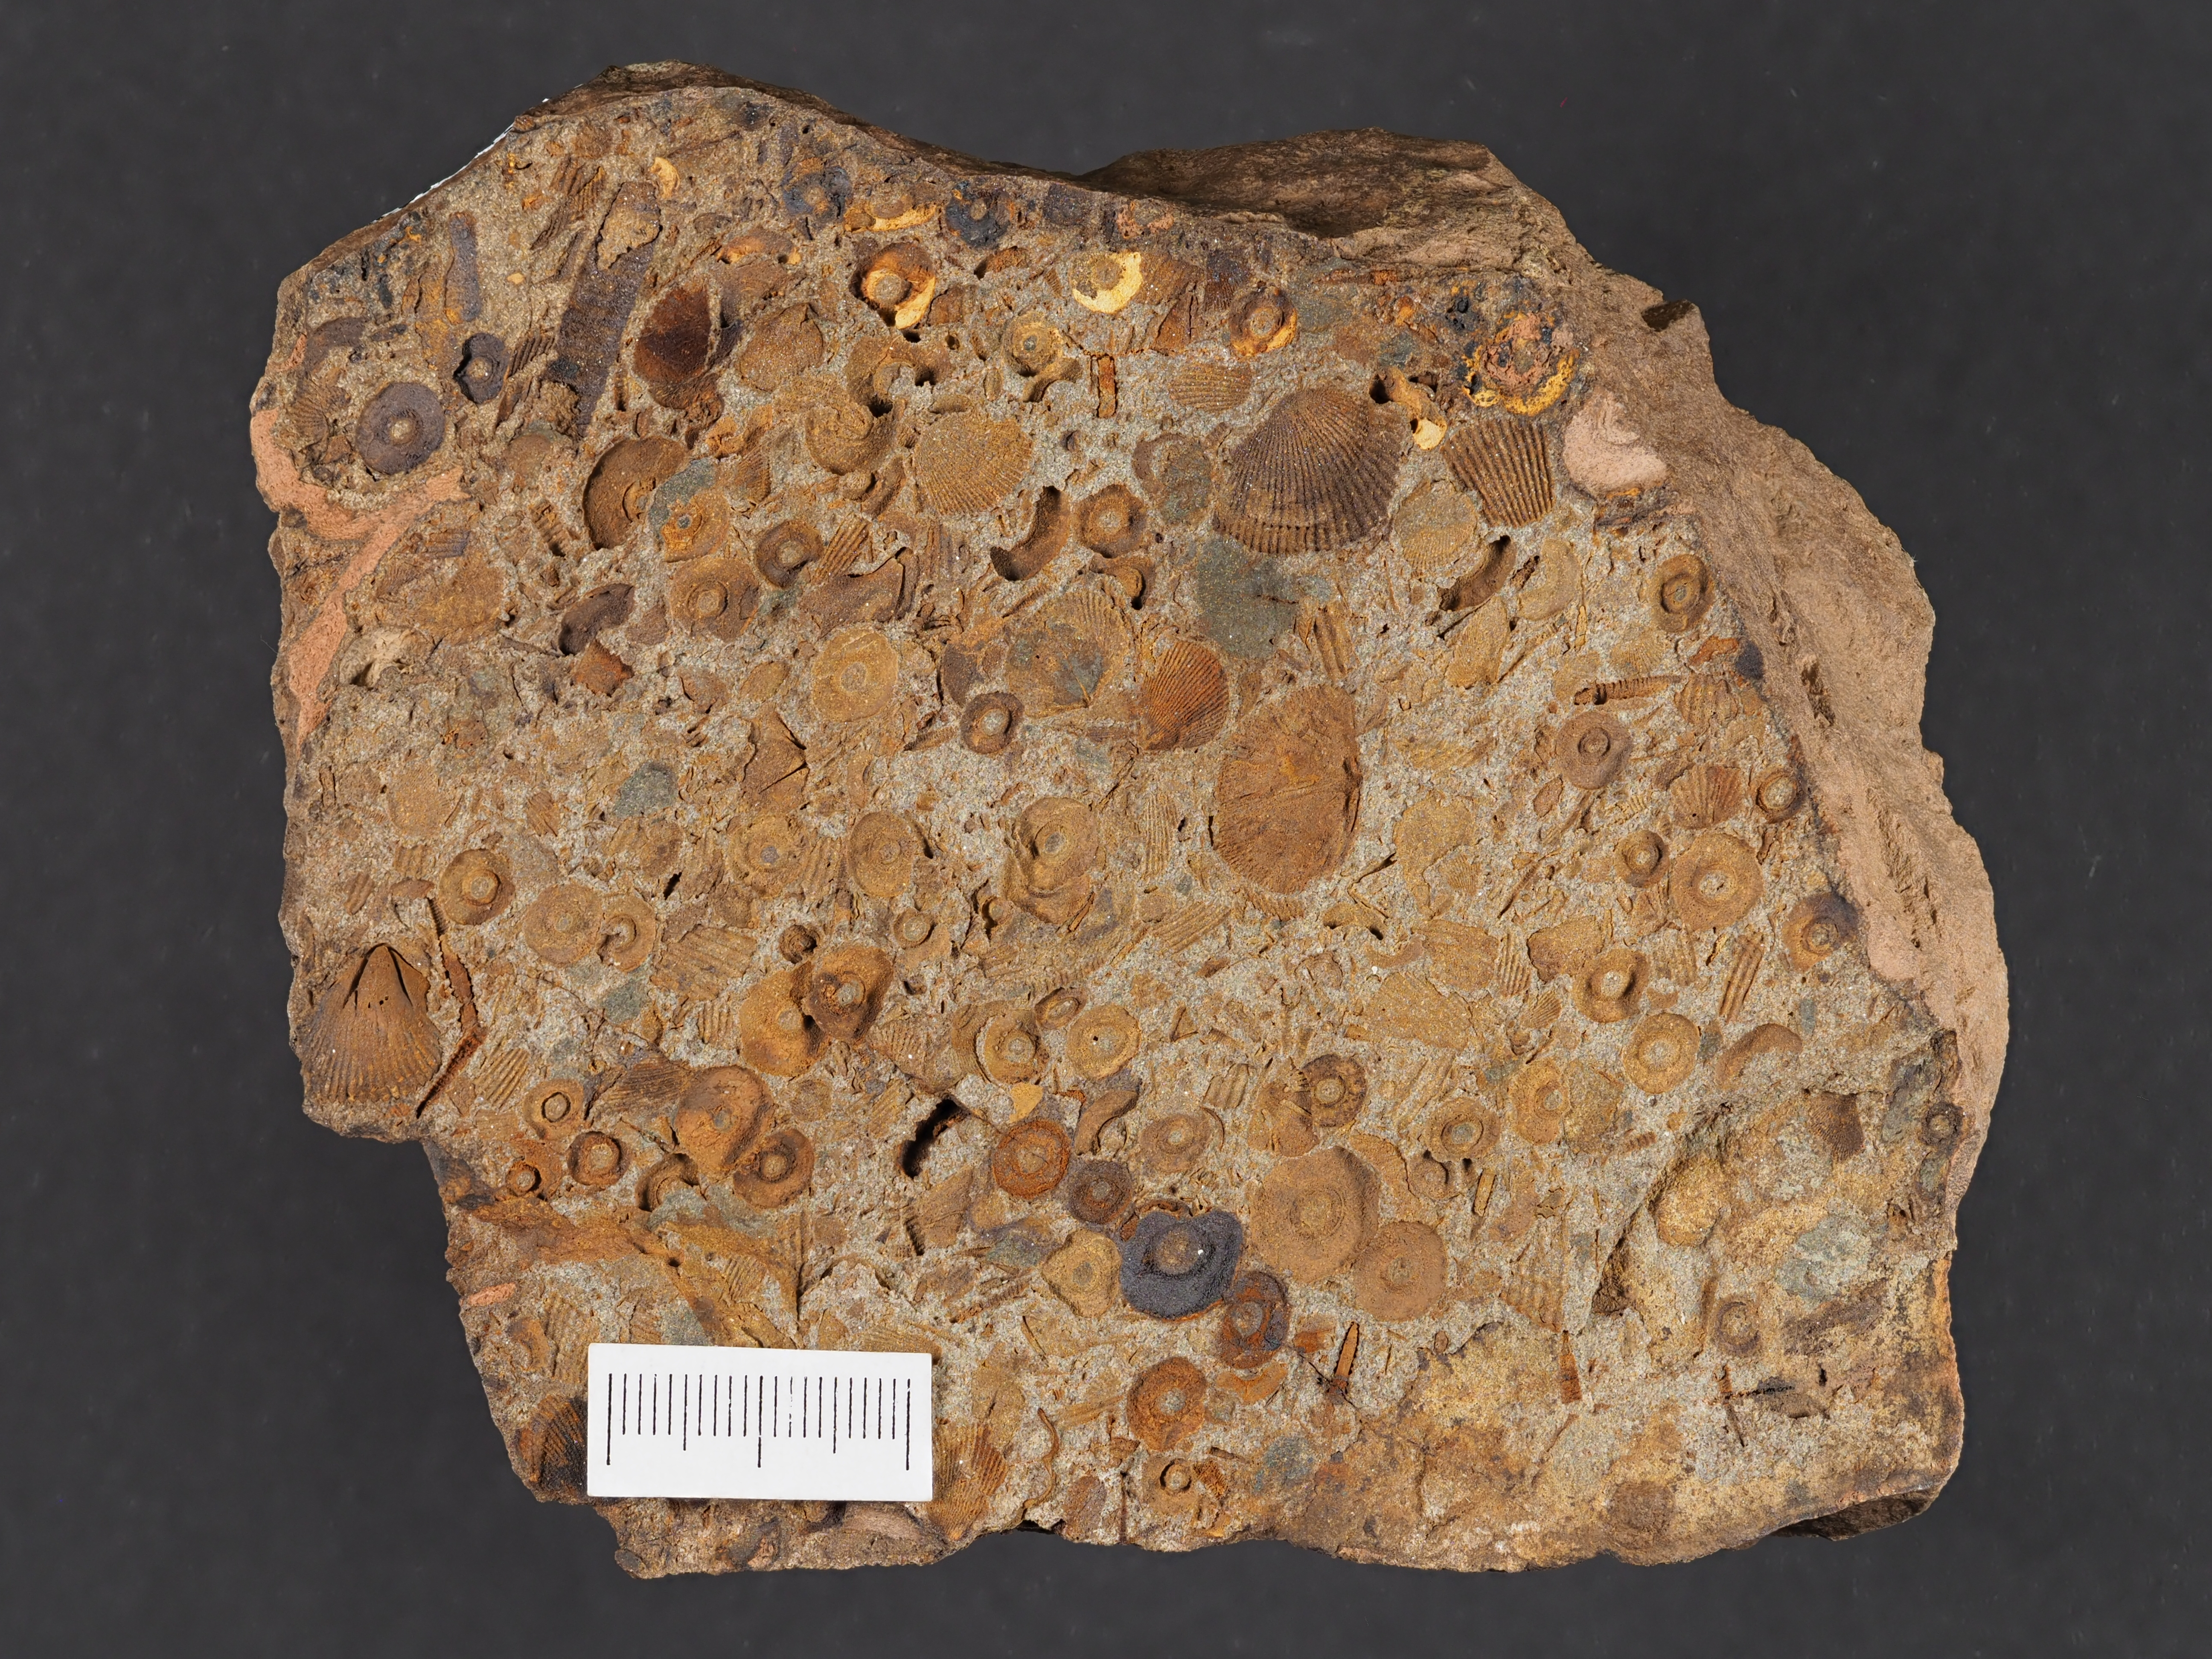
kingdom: Animalia
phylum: Echinodermata
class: Crinoidea
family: Rhodocrinitidae
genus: Acanthocrinus
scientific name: Acanthocrinus
